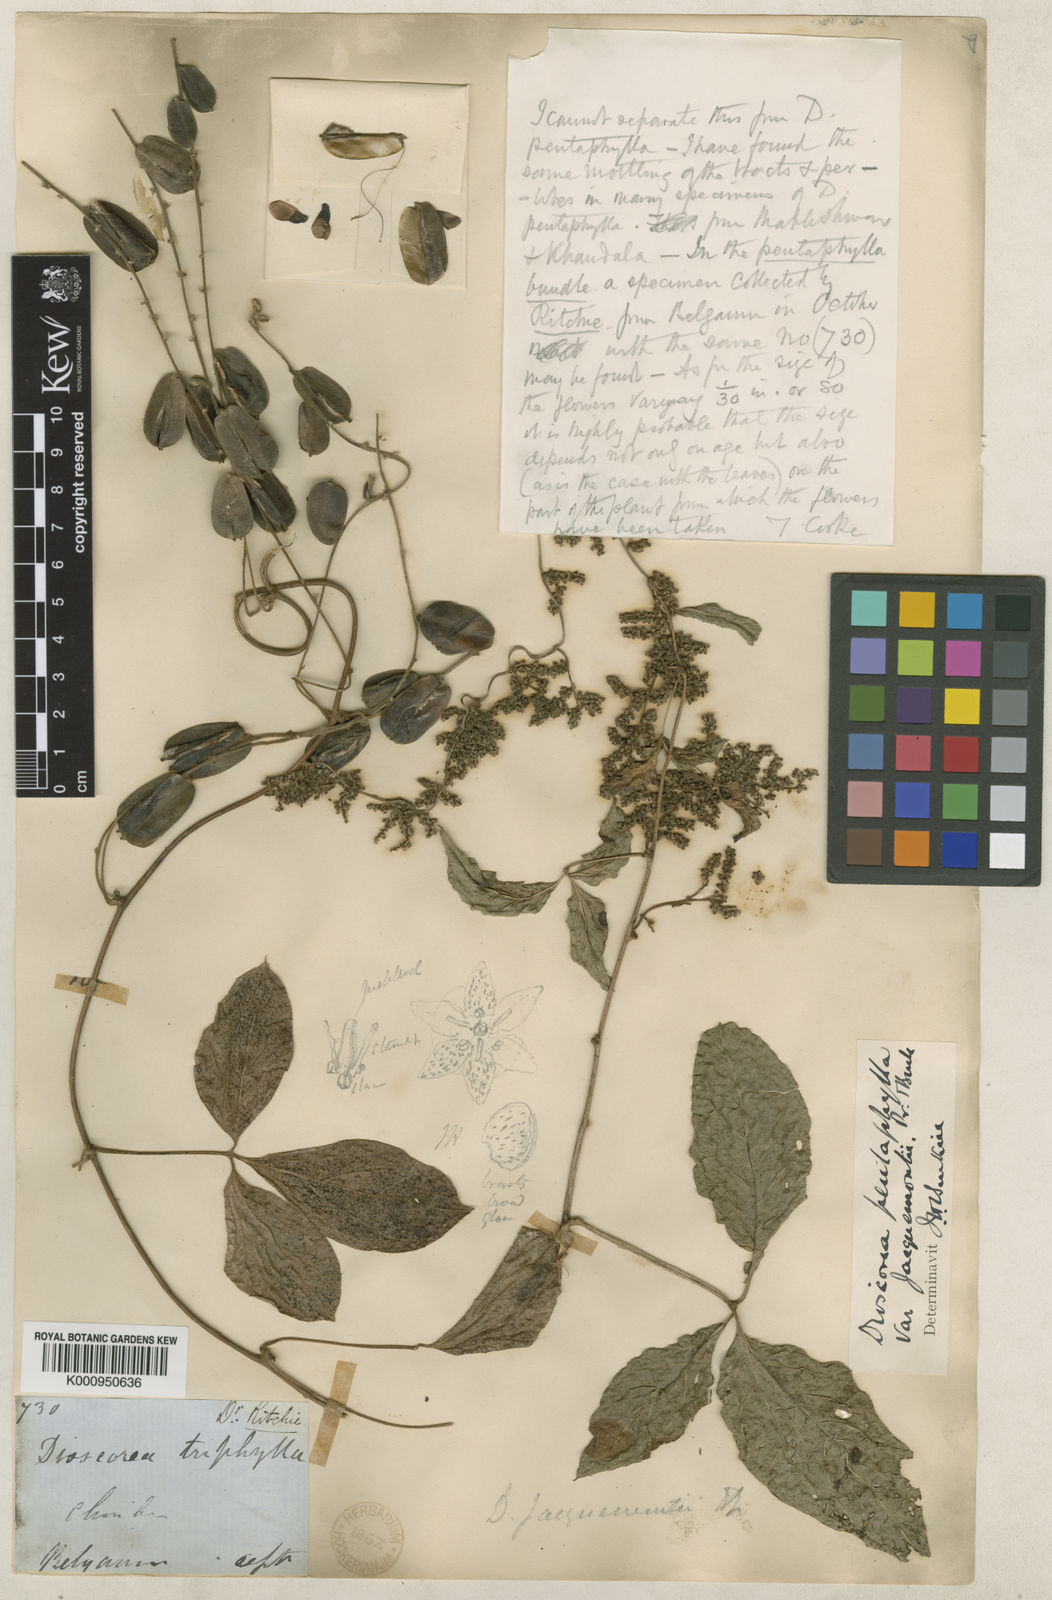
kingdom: Plantae
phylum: Tracheophyta
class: Liliopsida
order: Dioscoreales
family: Dioscoreaceae
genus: Dioscorea
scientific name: Dioscorea pentaphylla
